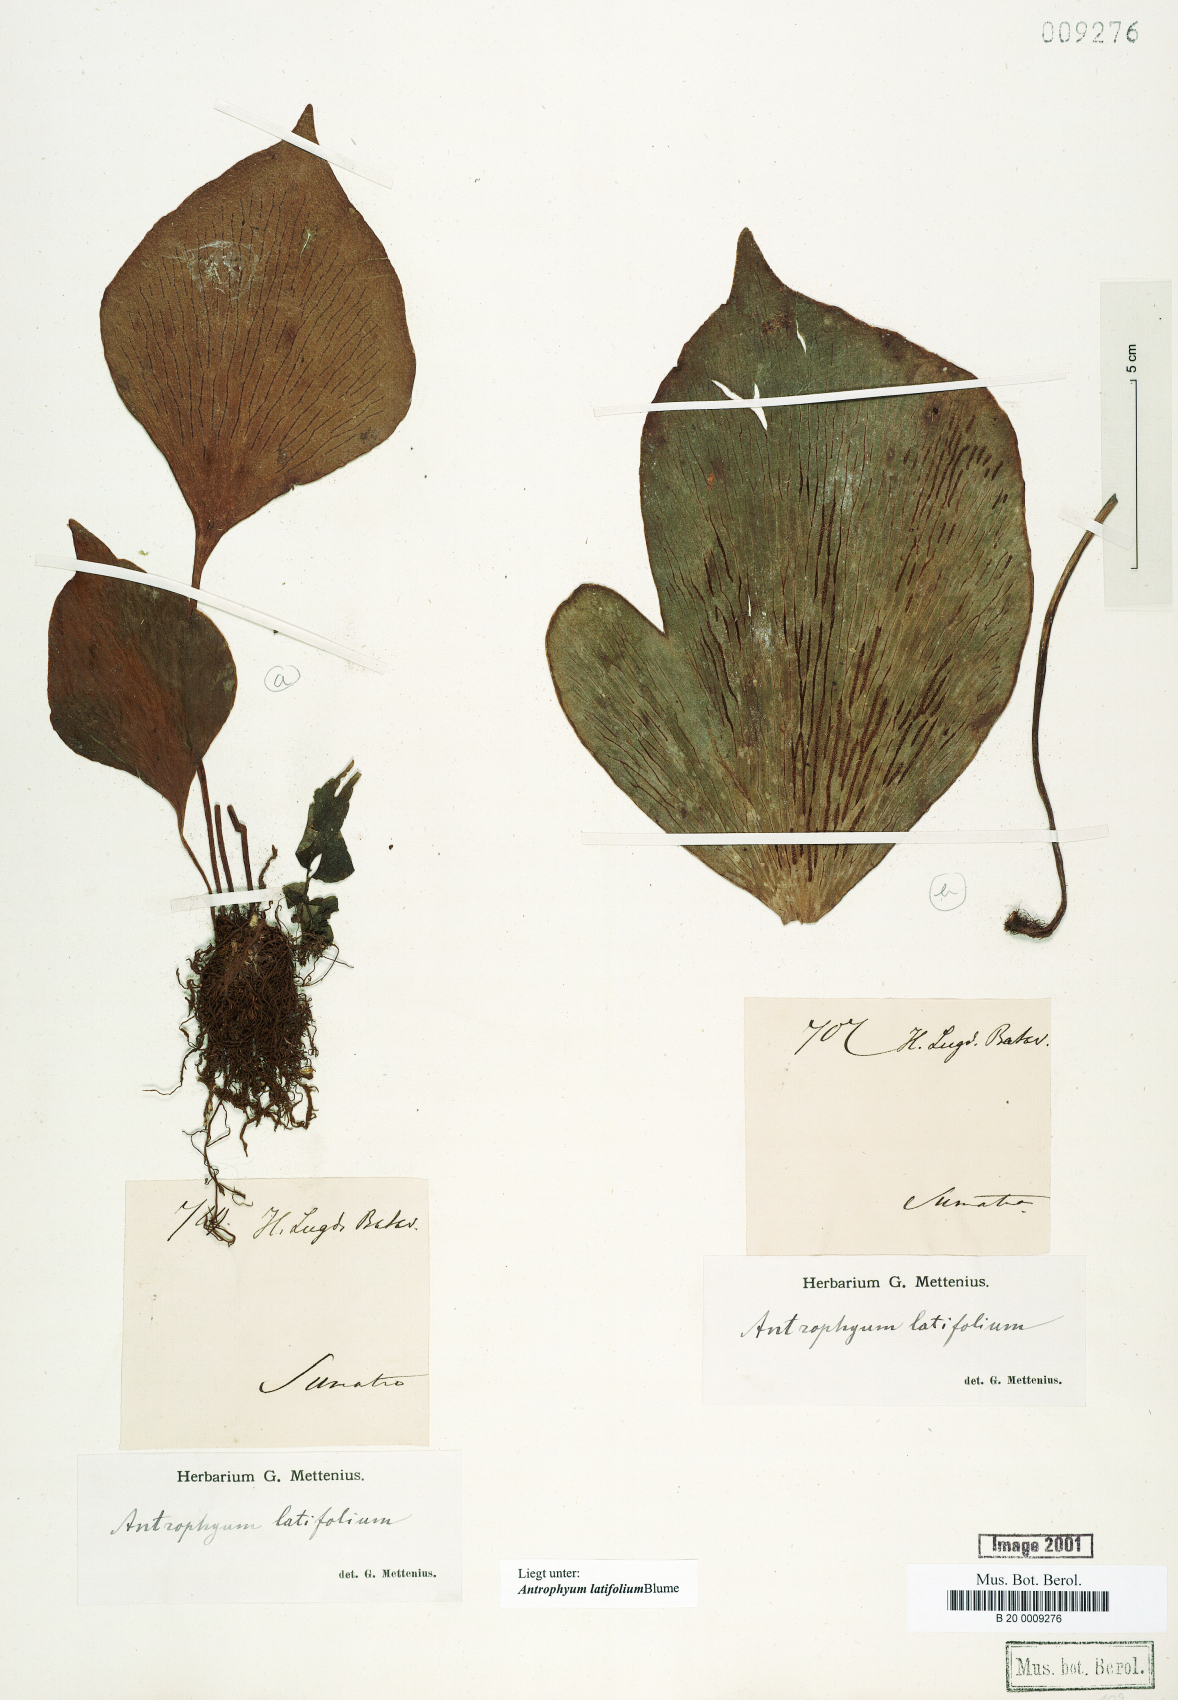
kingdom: Plantae
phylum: Tracheophyta
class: Polypodiopsida
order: Polypodiales
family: Pteridaceae
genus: Antrophyum
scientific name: Antrophyum latifolium
